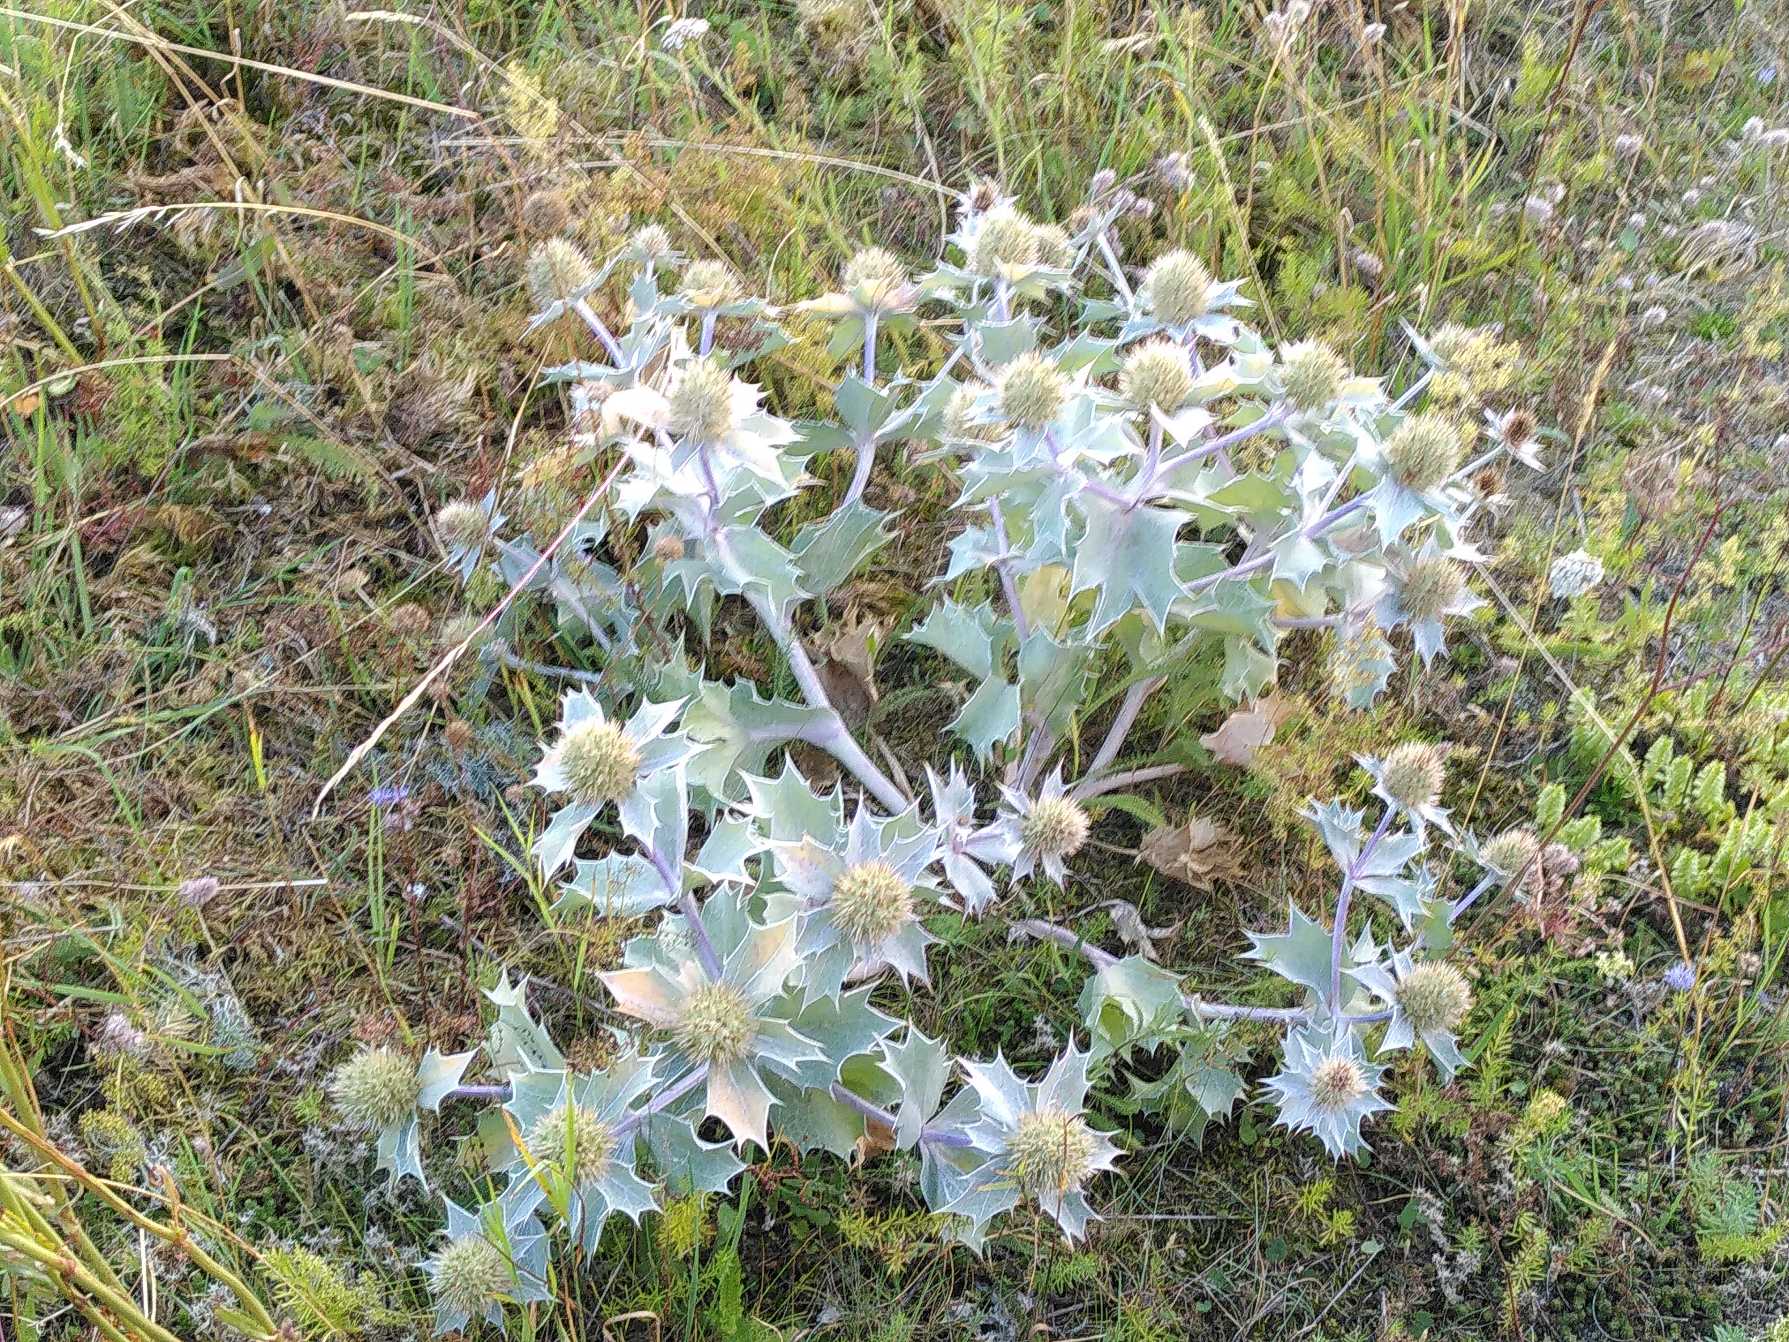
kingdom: Plantae
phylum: Tracheophyta
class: Magnoliopsida
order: Apiales
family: Apiaceae
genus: Eryngium
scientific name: Eryngium maritimum
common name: Strand-mandstro
